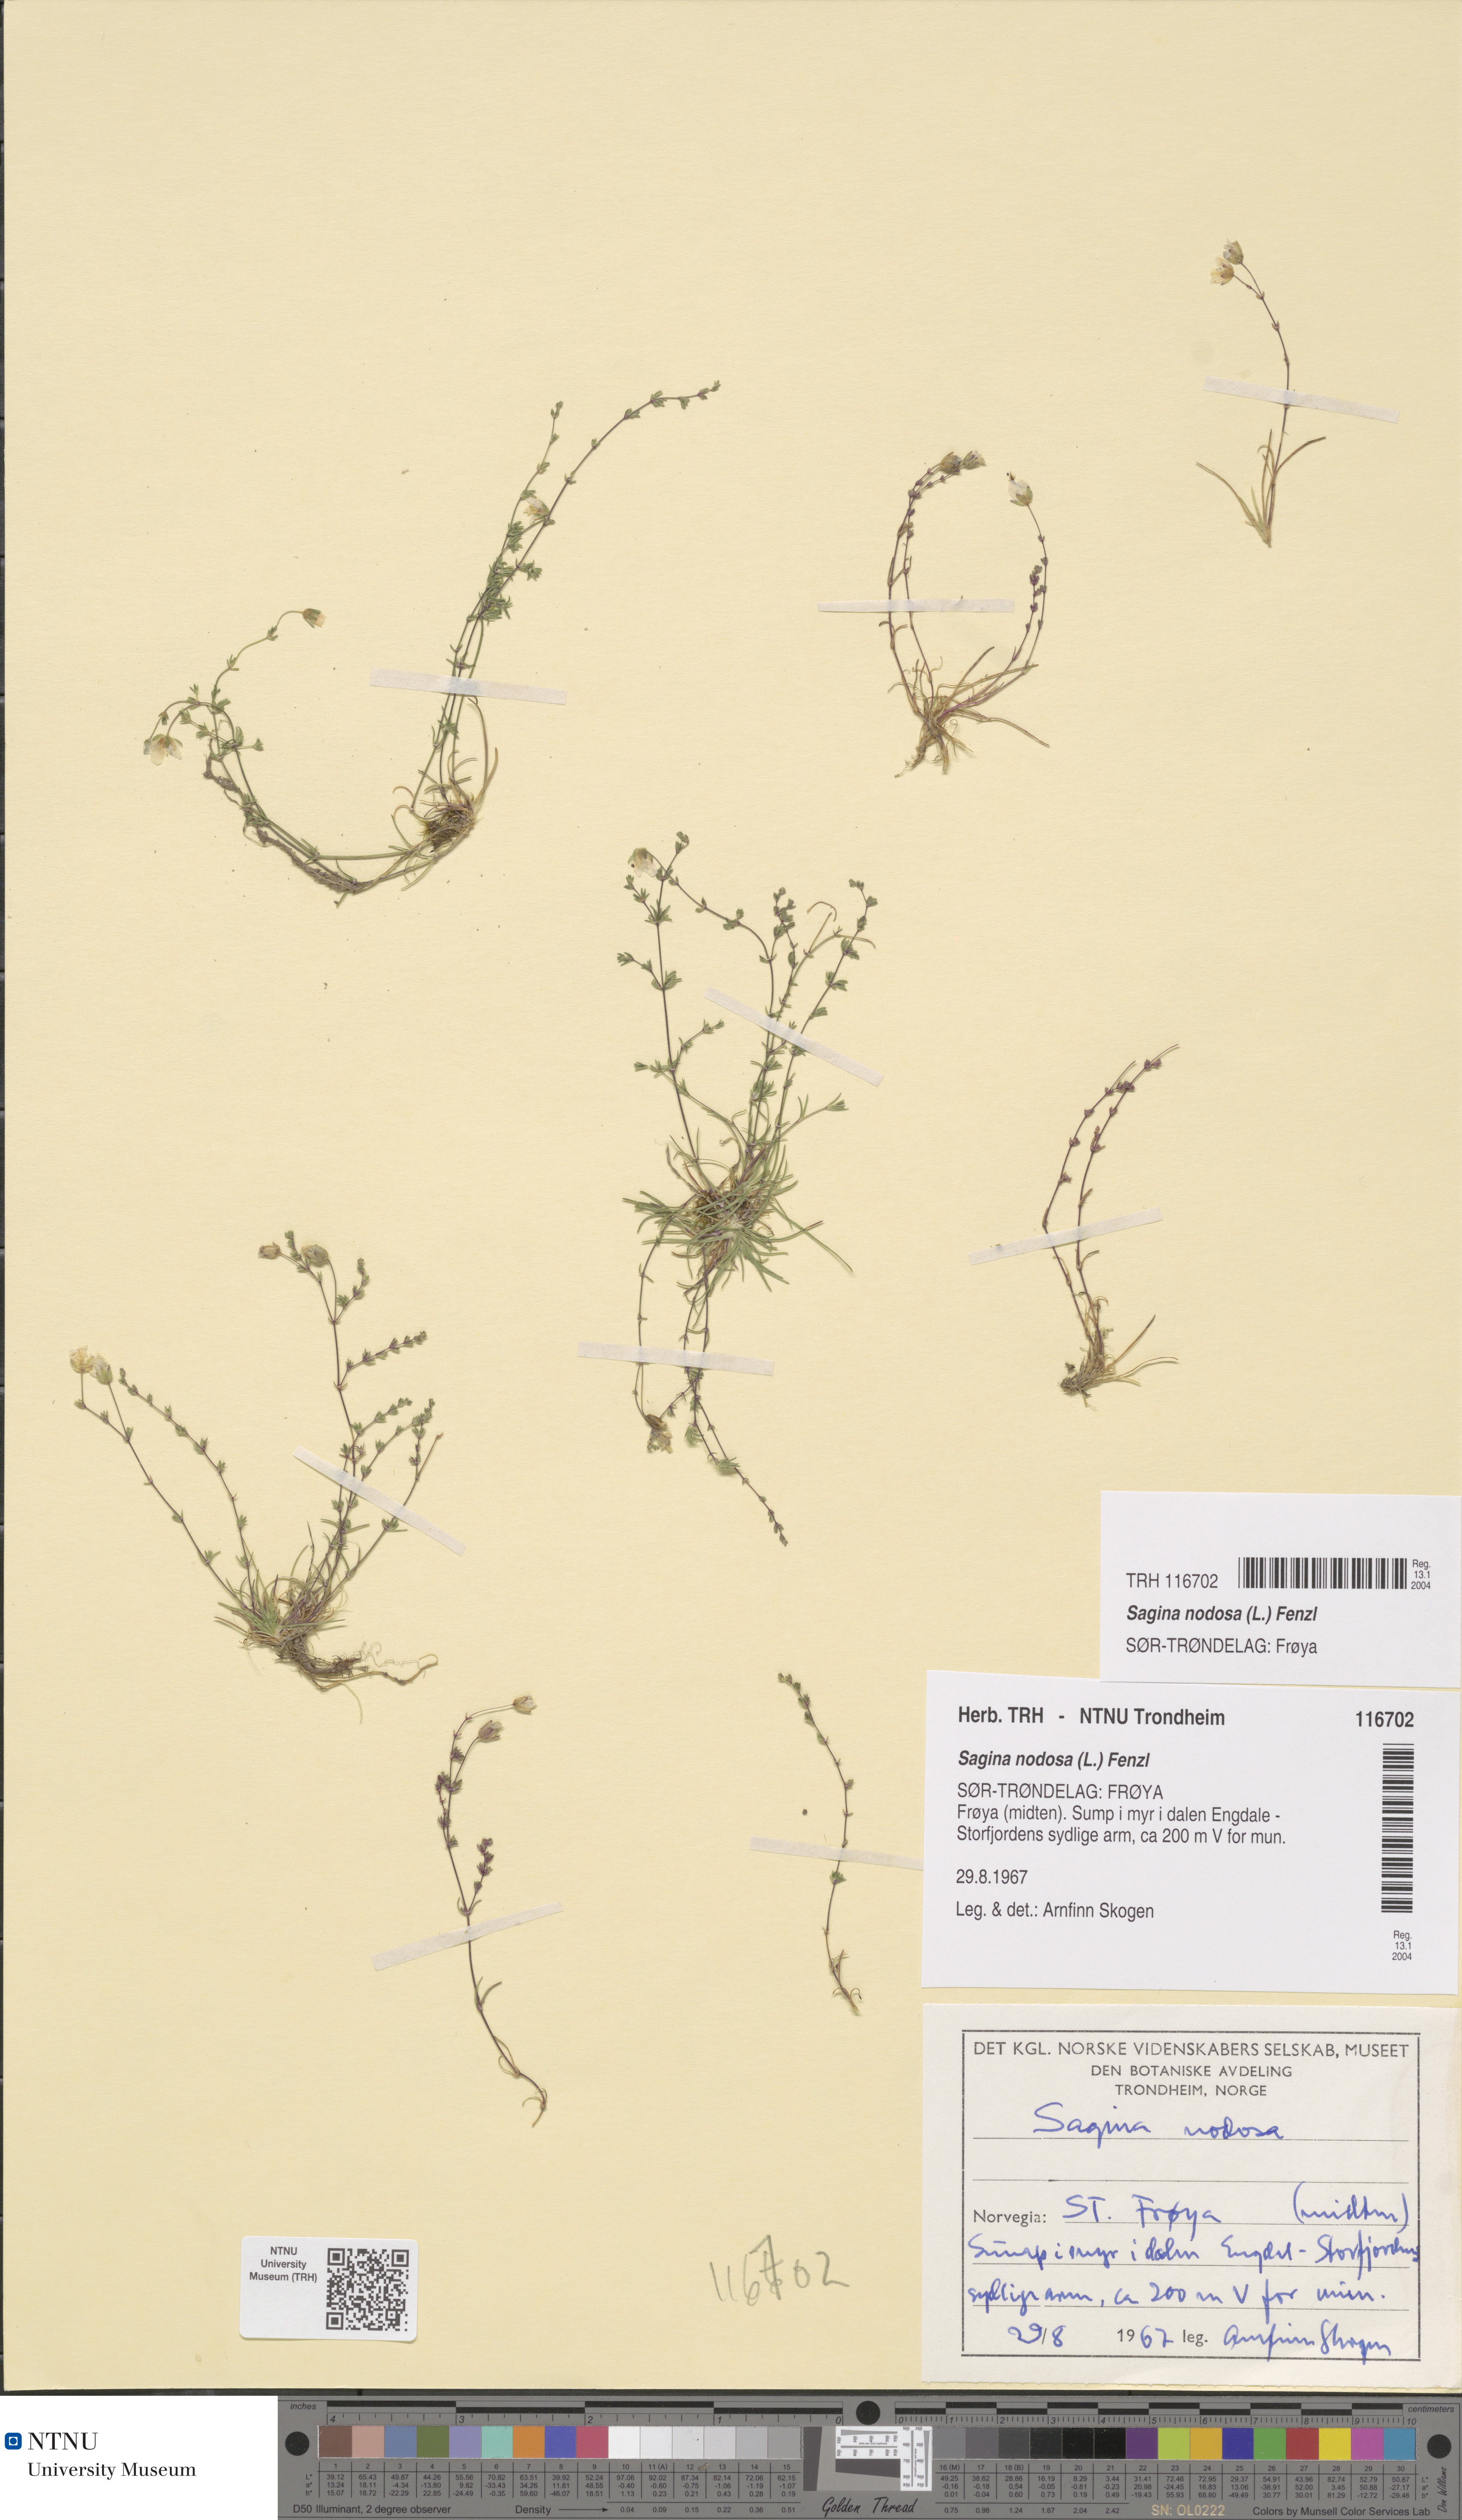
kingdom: Plantae
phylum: Tracheophyta
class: Magnoliopsida
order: Caryophyllales
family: Caryophyllaceae
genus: Sagina
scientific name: Sagina nodosa
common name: Knotted pearlwort
